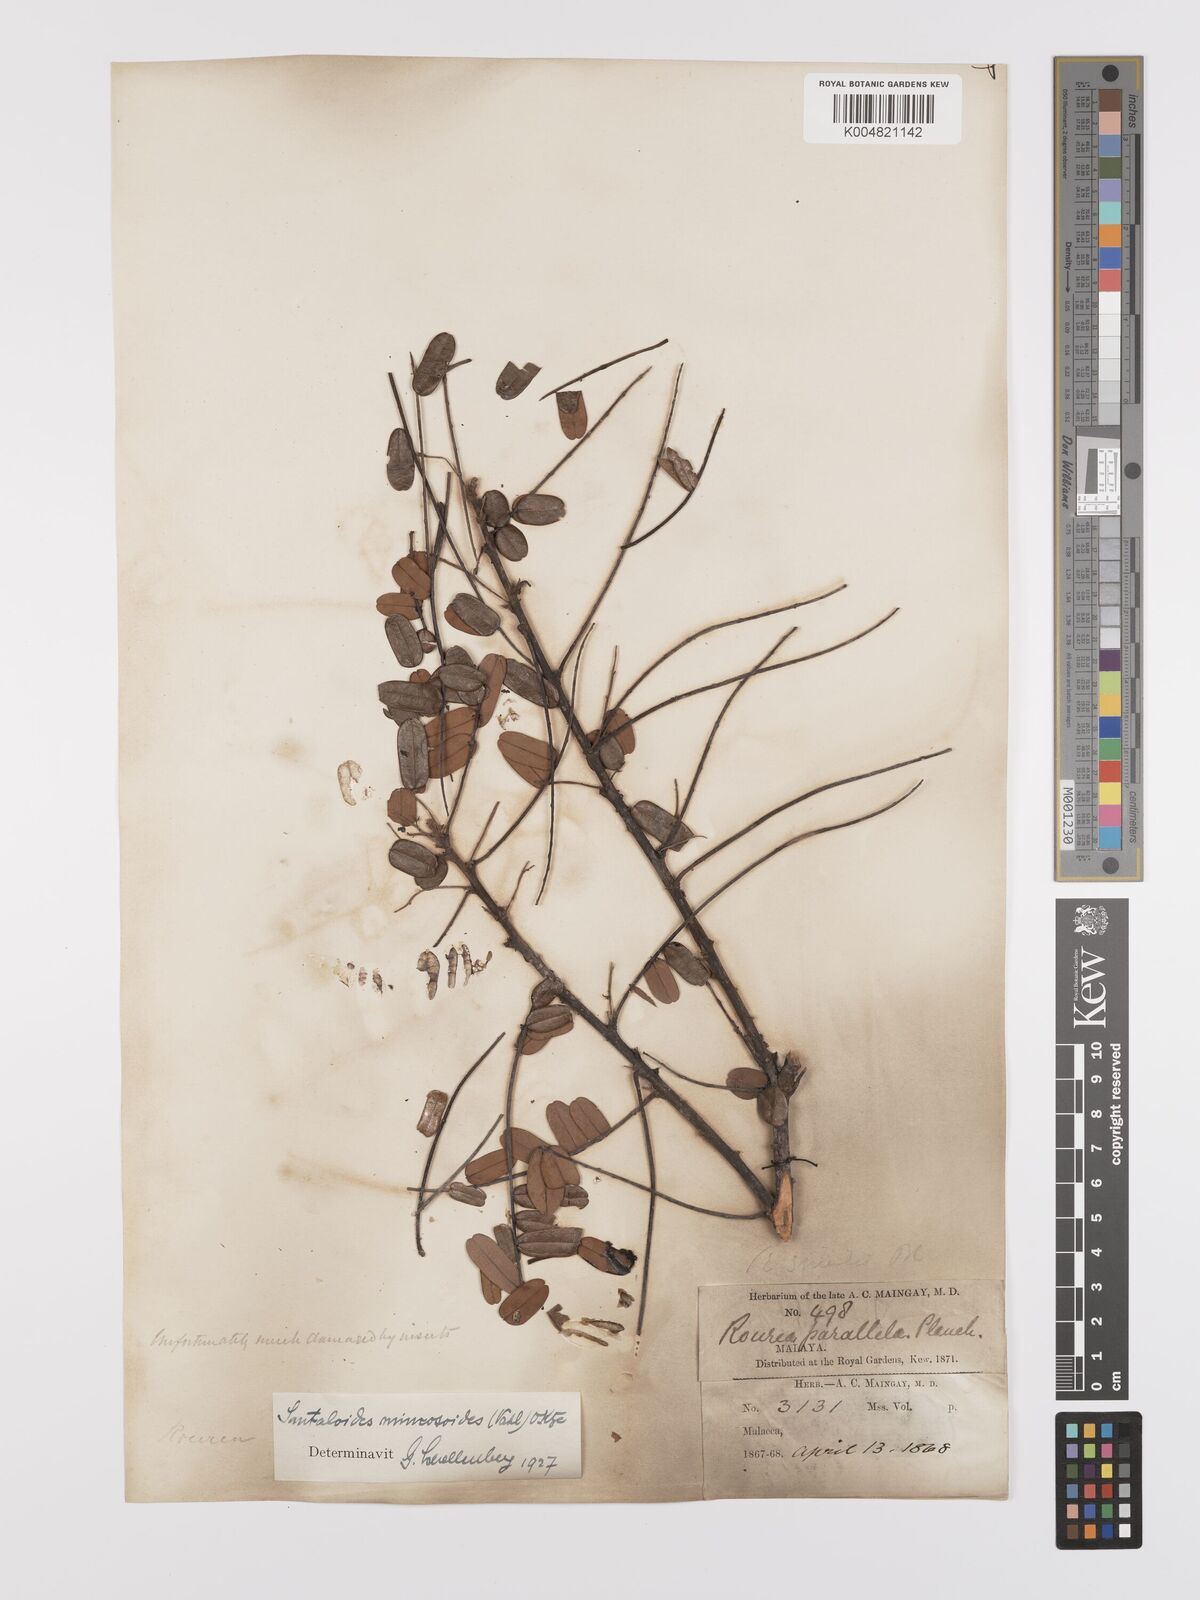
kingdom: Plantae
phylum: Tracheophyta
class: Magnoliopsida
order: Oxalidales
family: Connaraceae
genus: Rourea
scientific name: Rourea mimosoides
